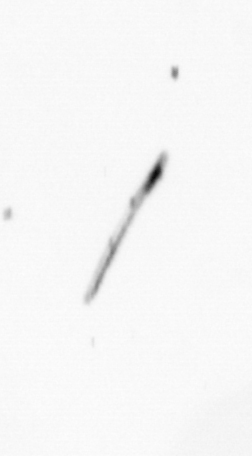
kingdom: Chromista
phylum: Ochrophyta
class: Bacillariophyceae
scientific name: Bacillariophyceae
